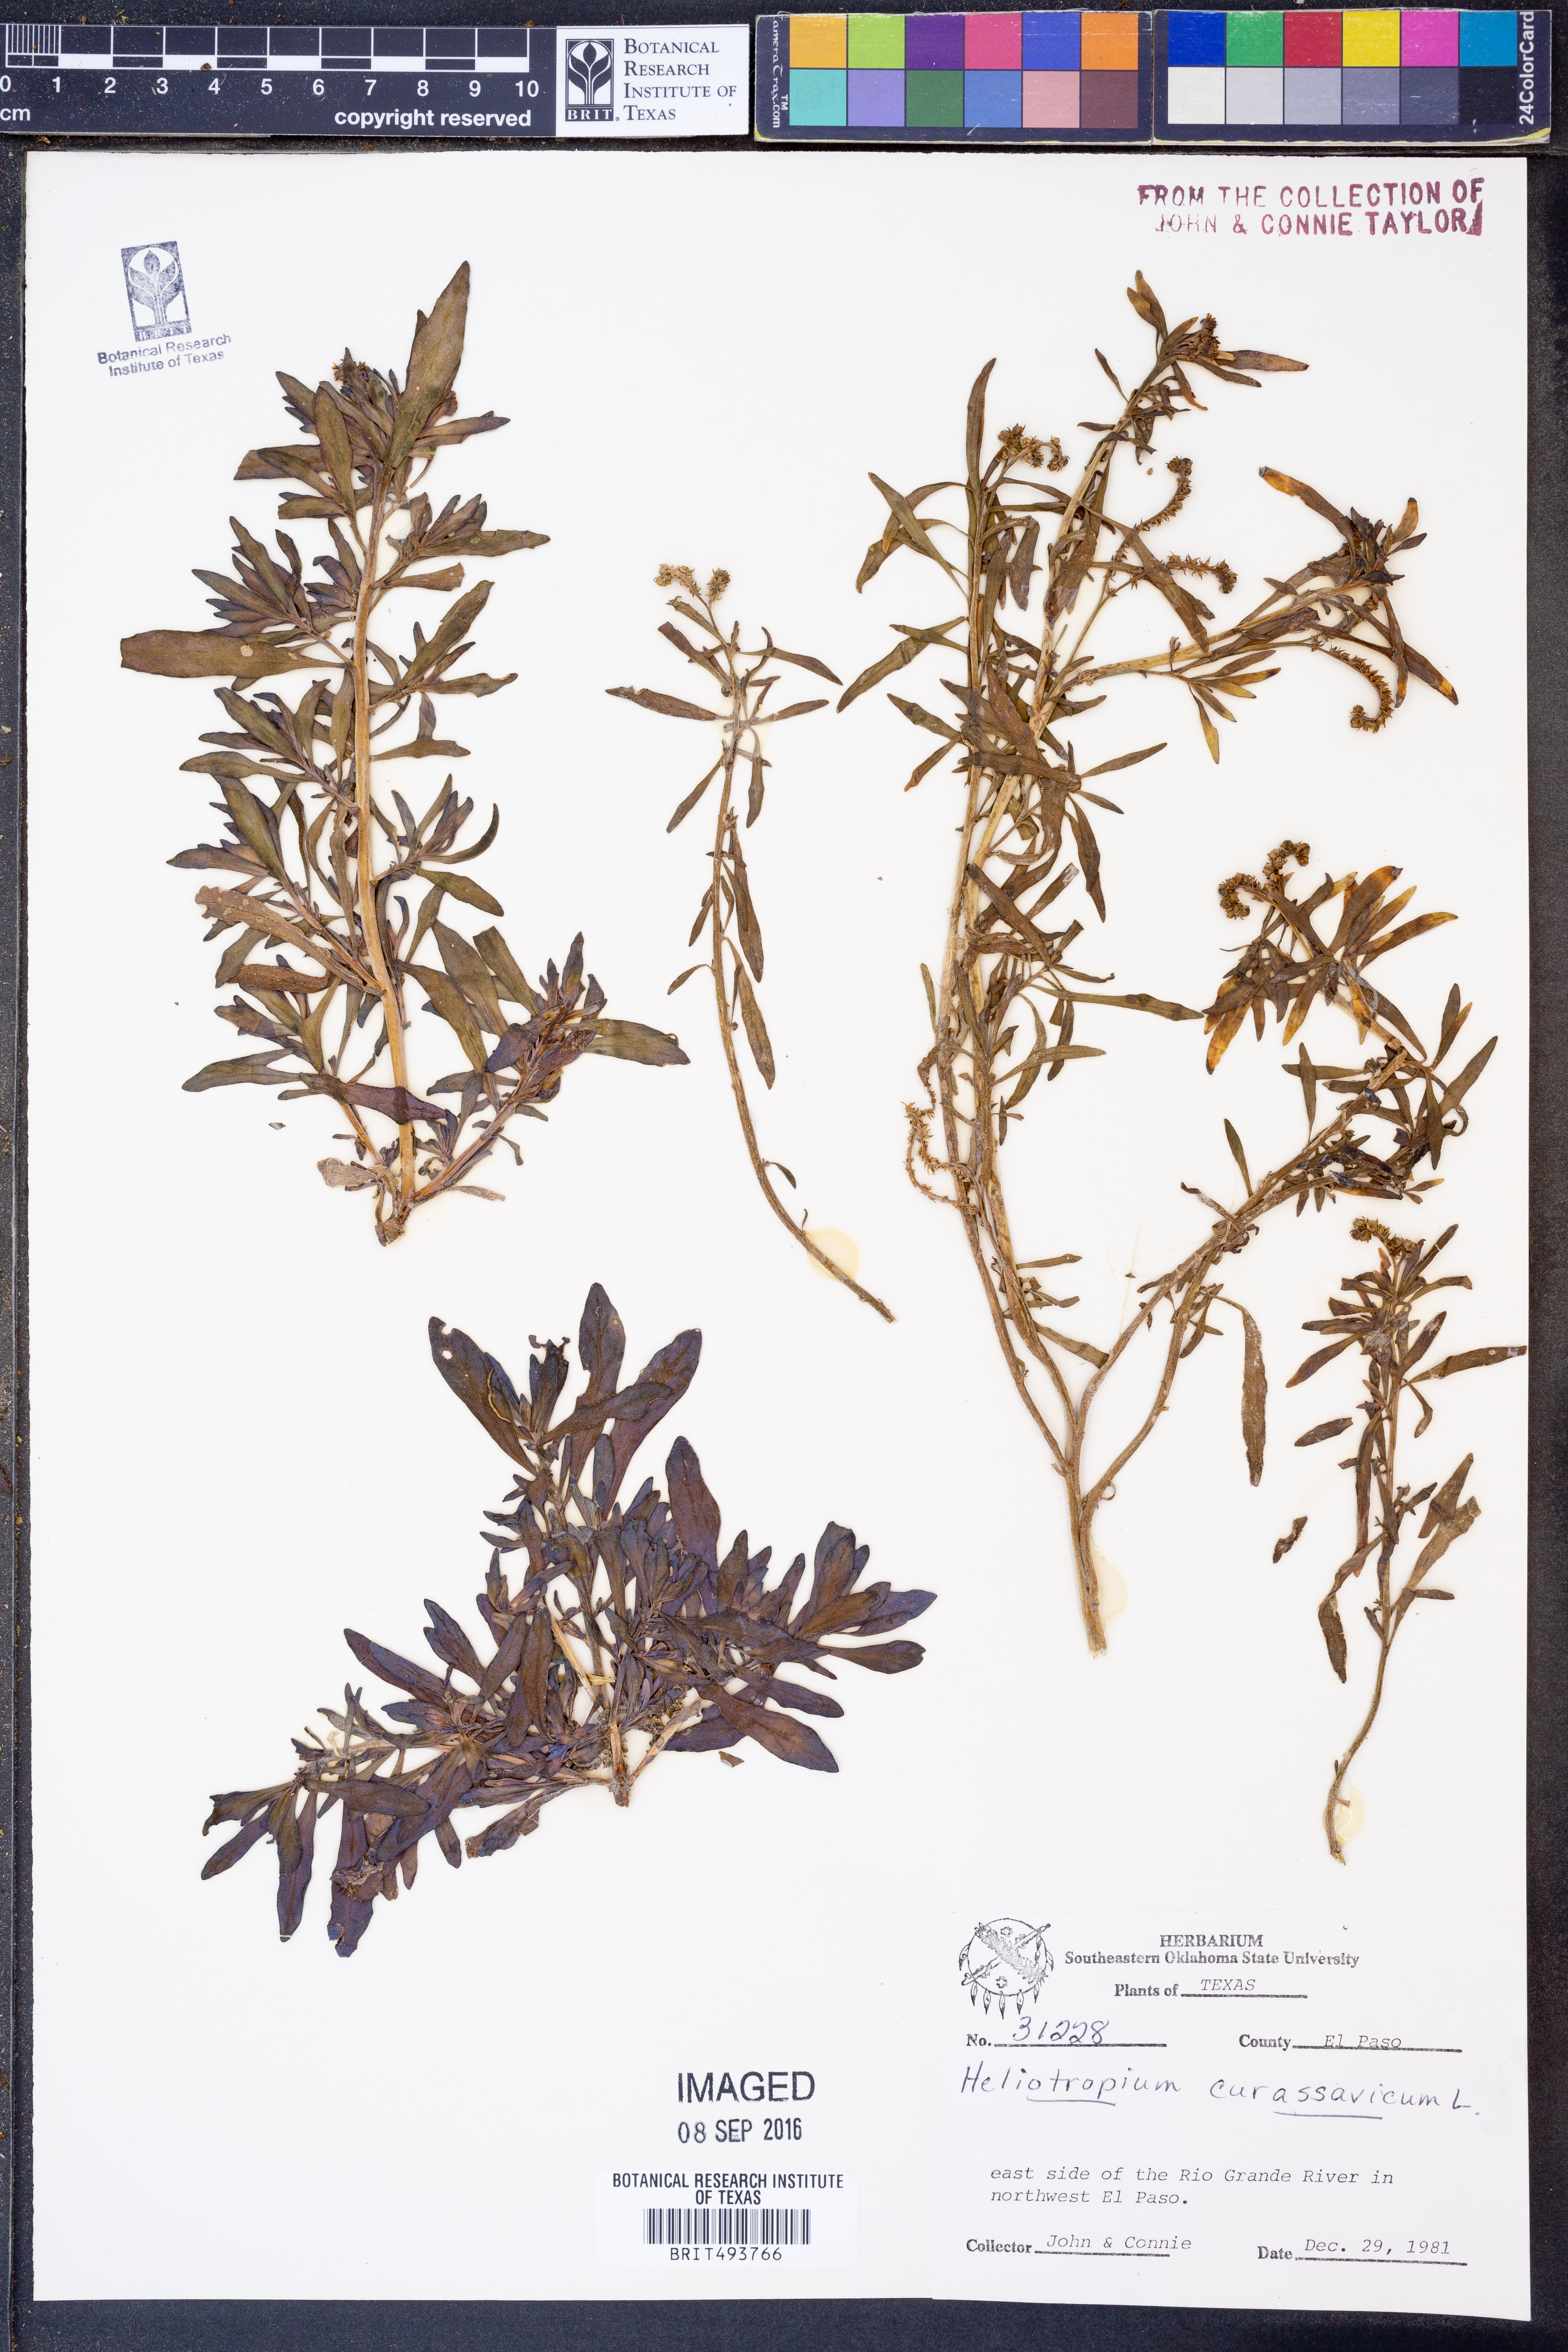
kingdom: Plantae
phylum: Tracheophyta
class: Magnoliopsida
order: Boraginales
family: Heliotropiaceae
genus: Heliotropium
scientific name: Heliotropium curassavicum
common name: Seaside heliotrope
